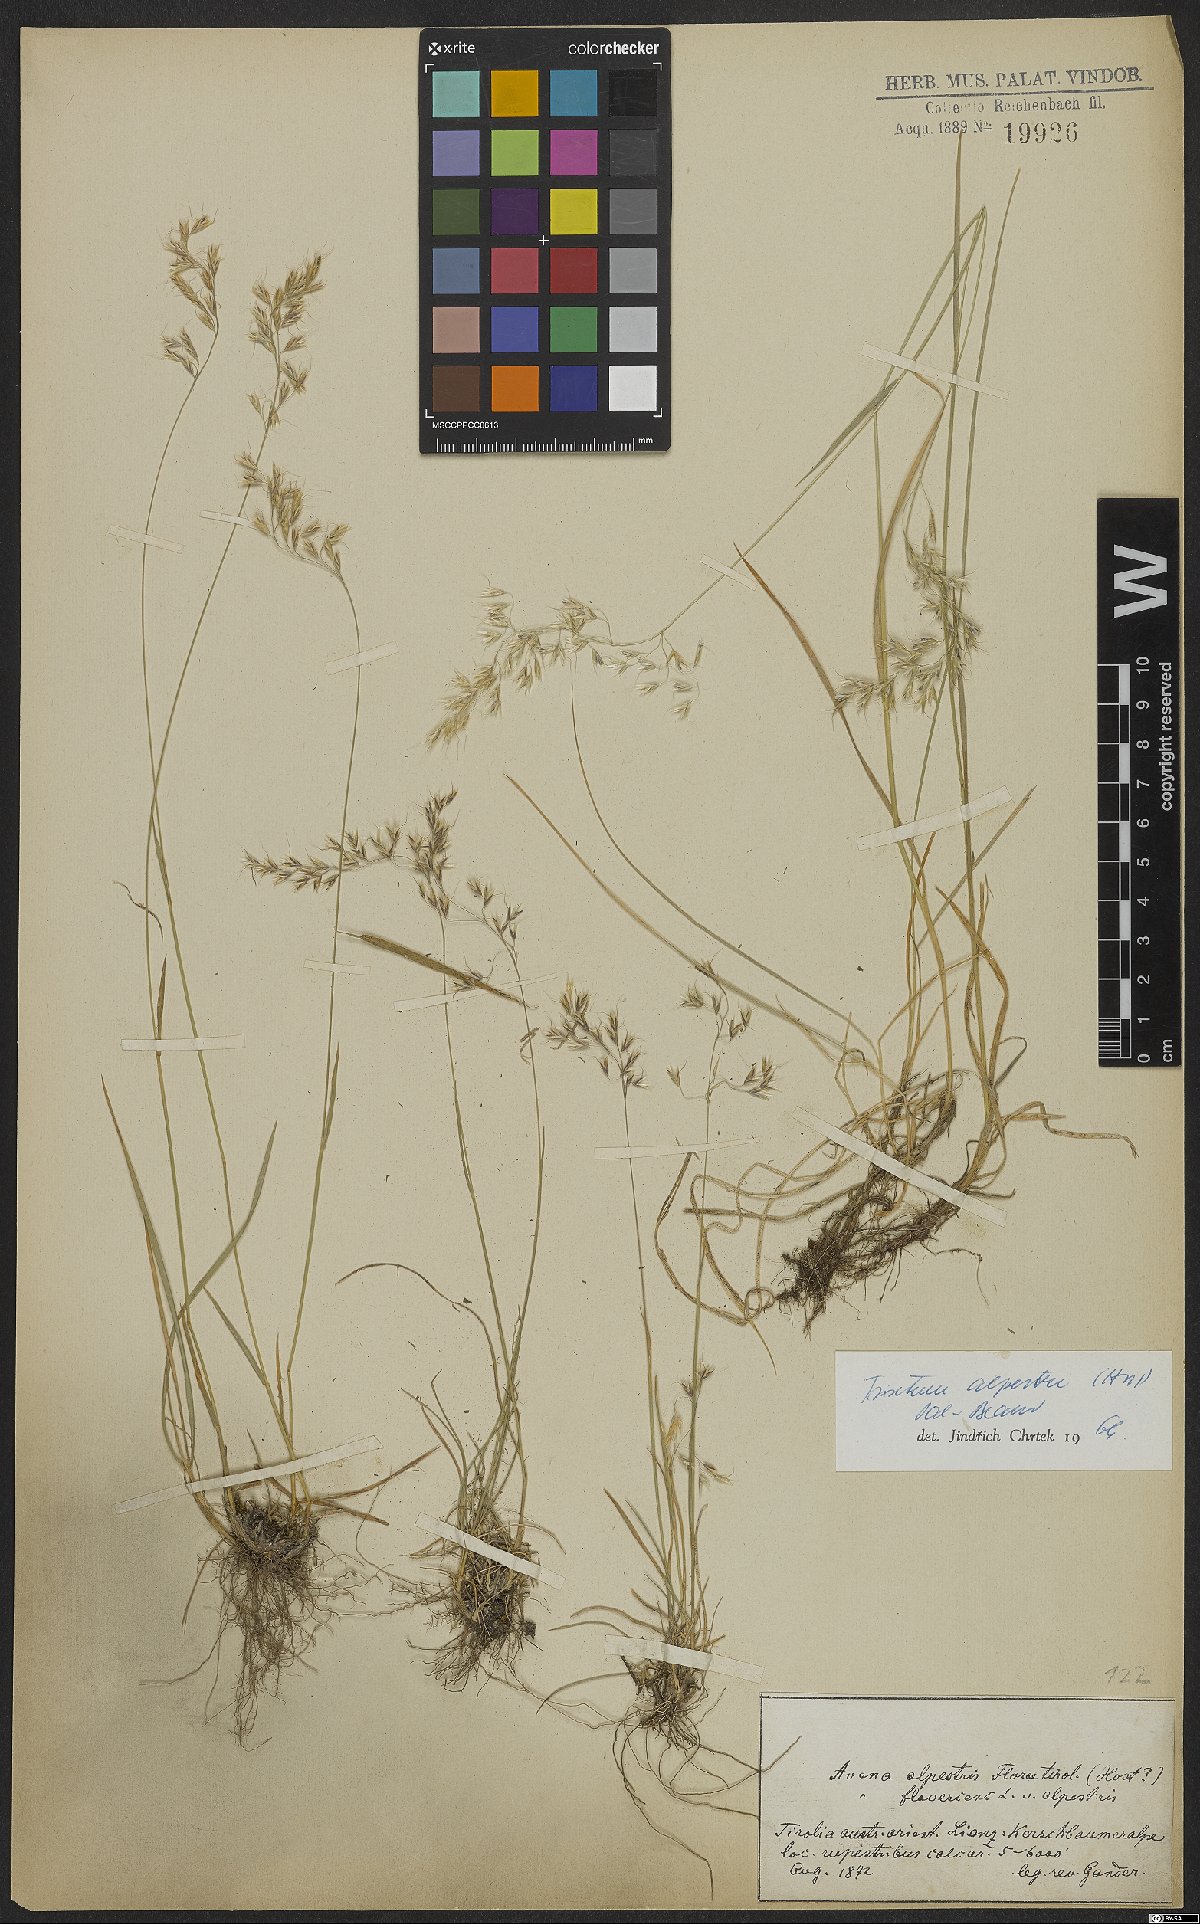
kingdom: Plantae
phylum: Tracheophyta
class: Liliopsida
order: Poales
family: Poaceae
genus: Trisetum
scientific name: Trisetum alpestre
